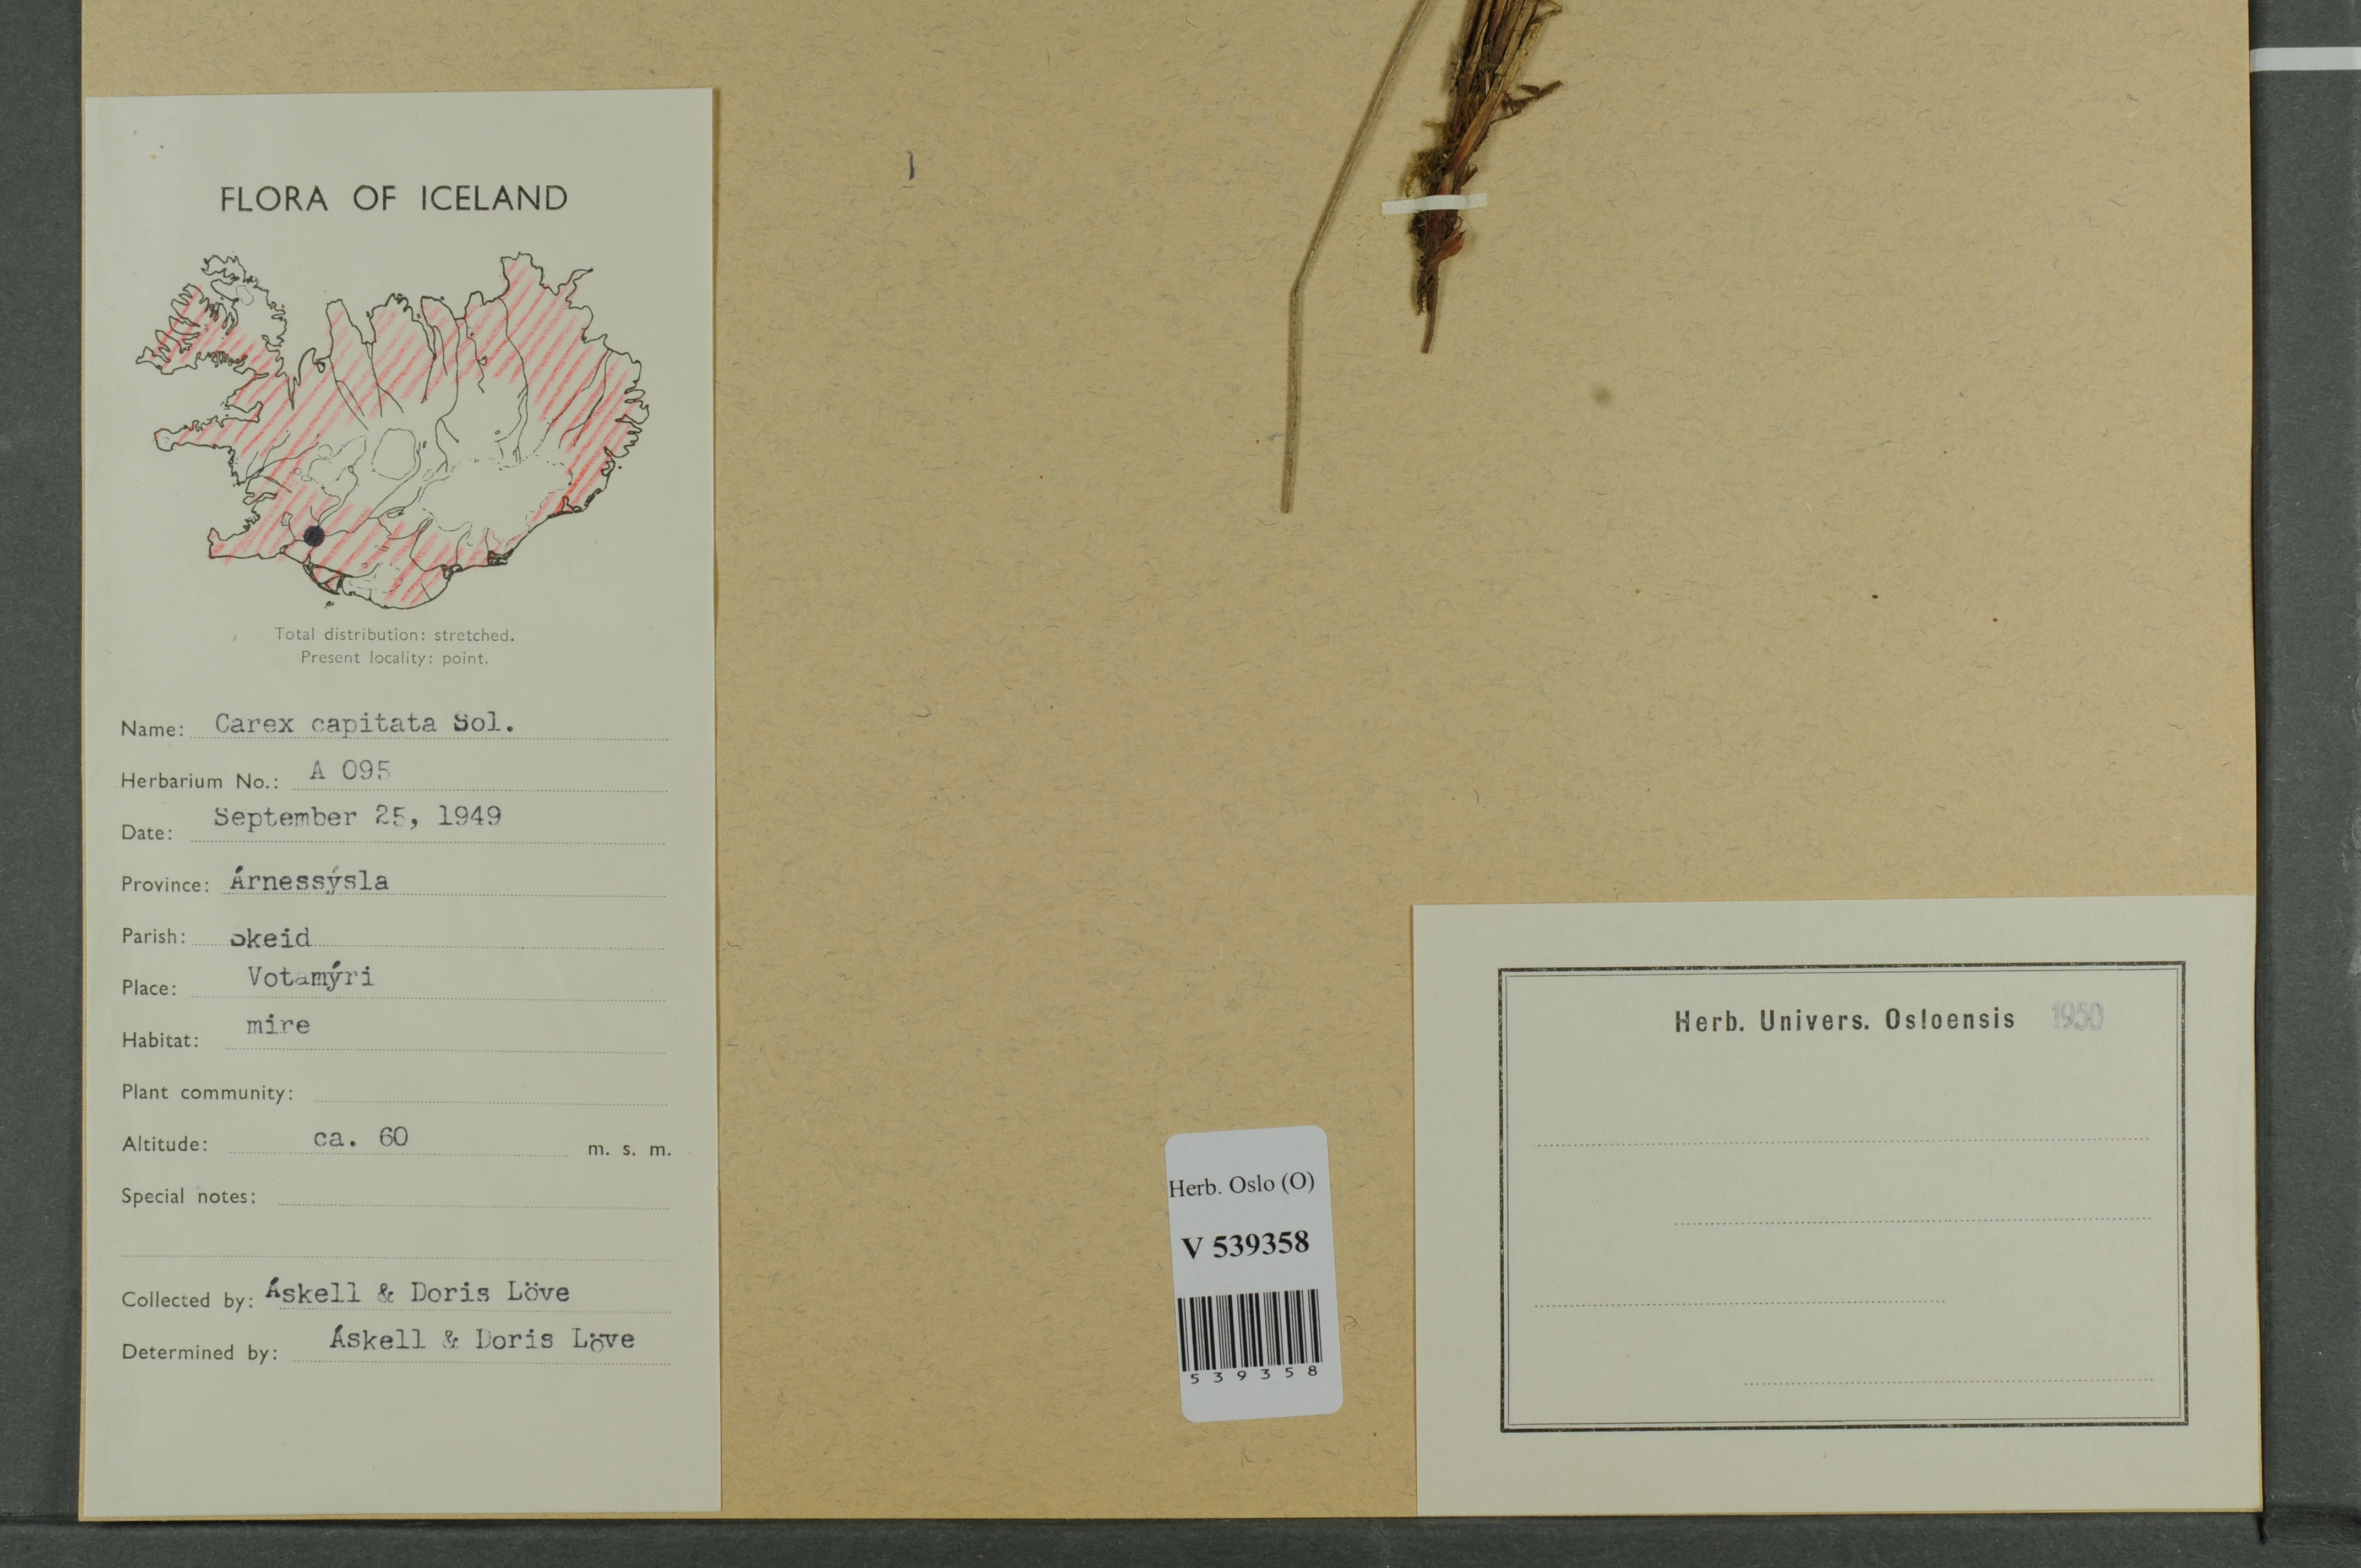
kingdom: Plantae
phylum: Tracheophyta
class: Liliopsida
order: Poales
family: Cyperaceae
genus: Carex
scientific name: Carex capitata
